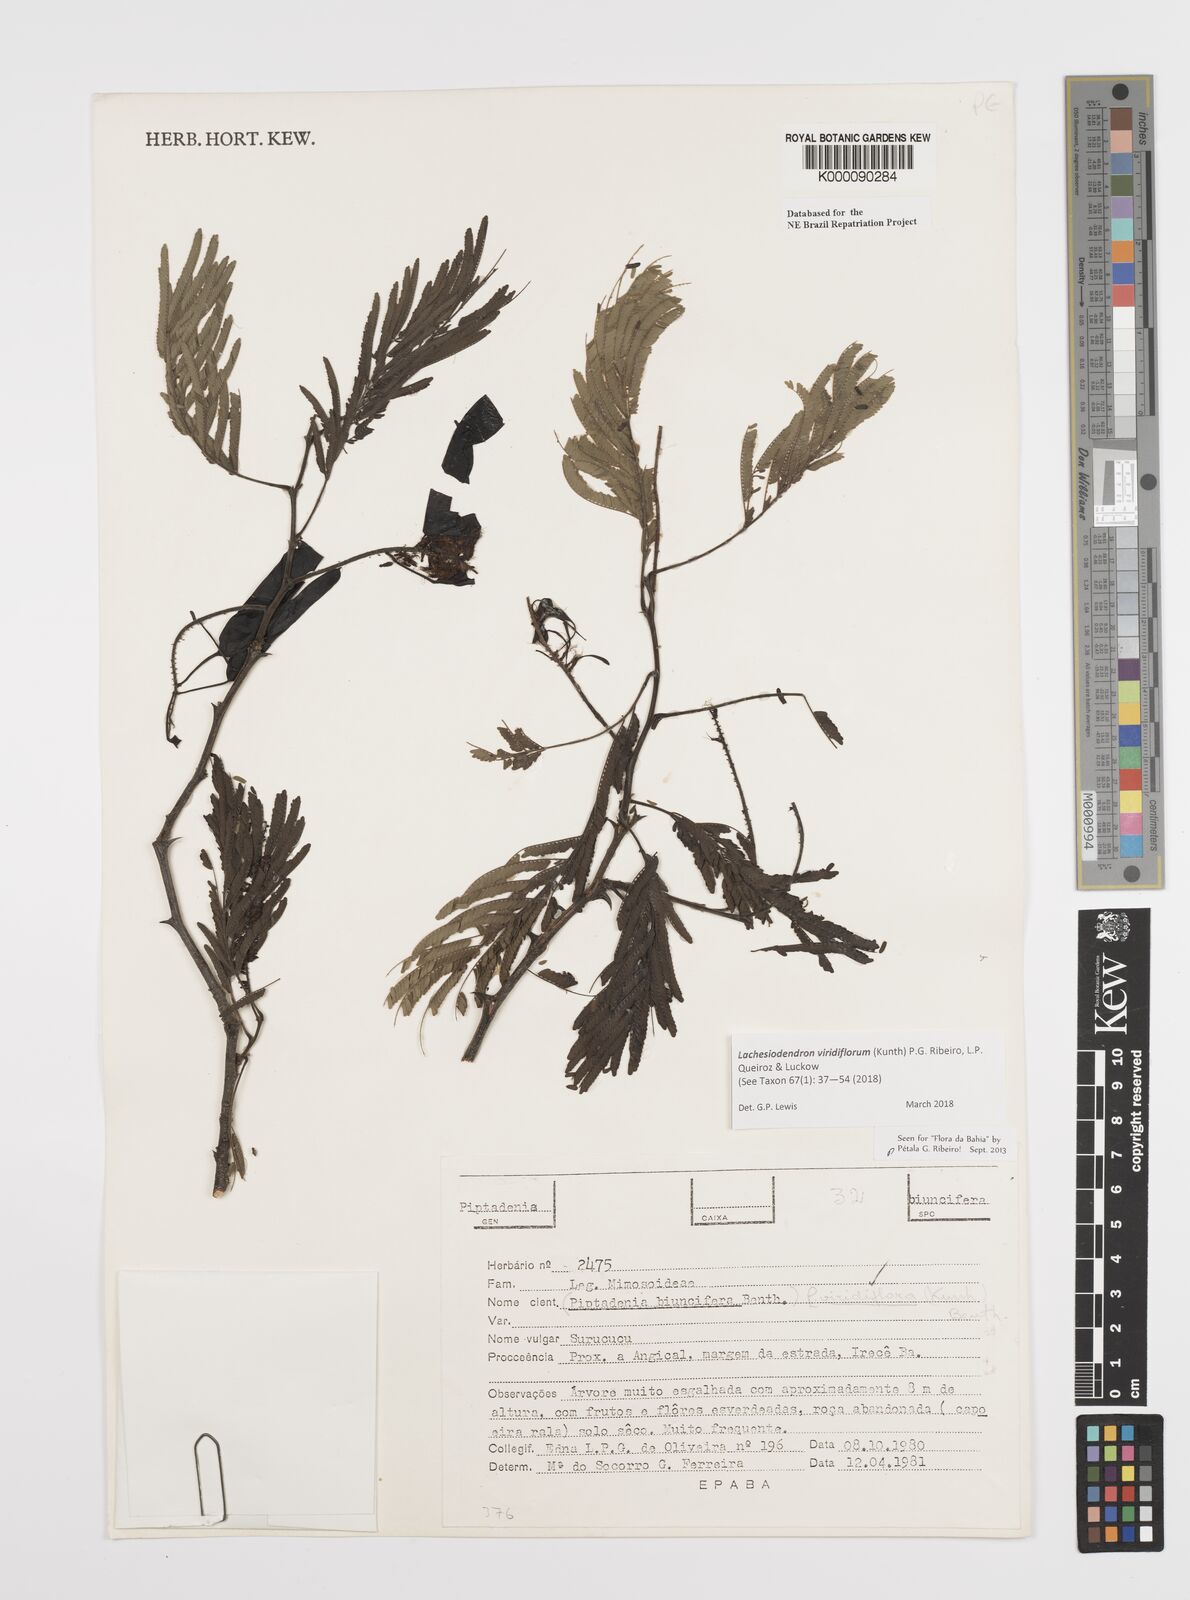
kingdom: Plantae
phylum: Tracheophyta
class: Magnoliopsida
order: Fabales
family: Fabaceae
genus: Lachesiodendron
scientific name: Lachesiodendron viridiflorum
